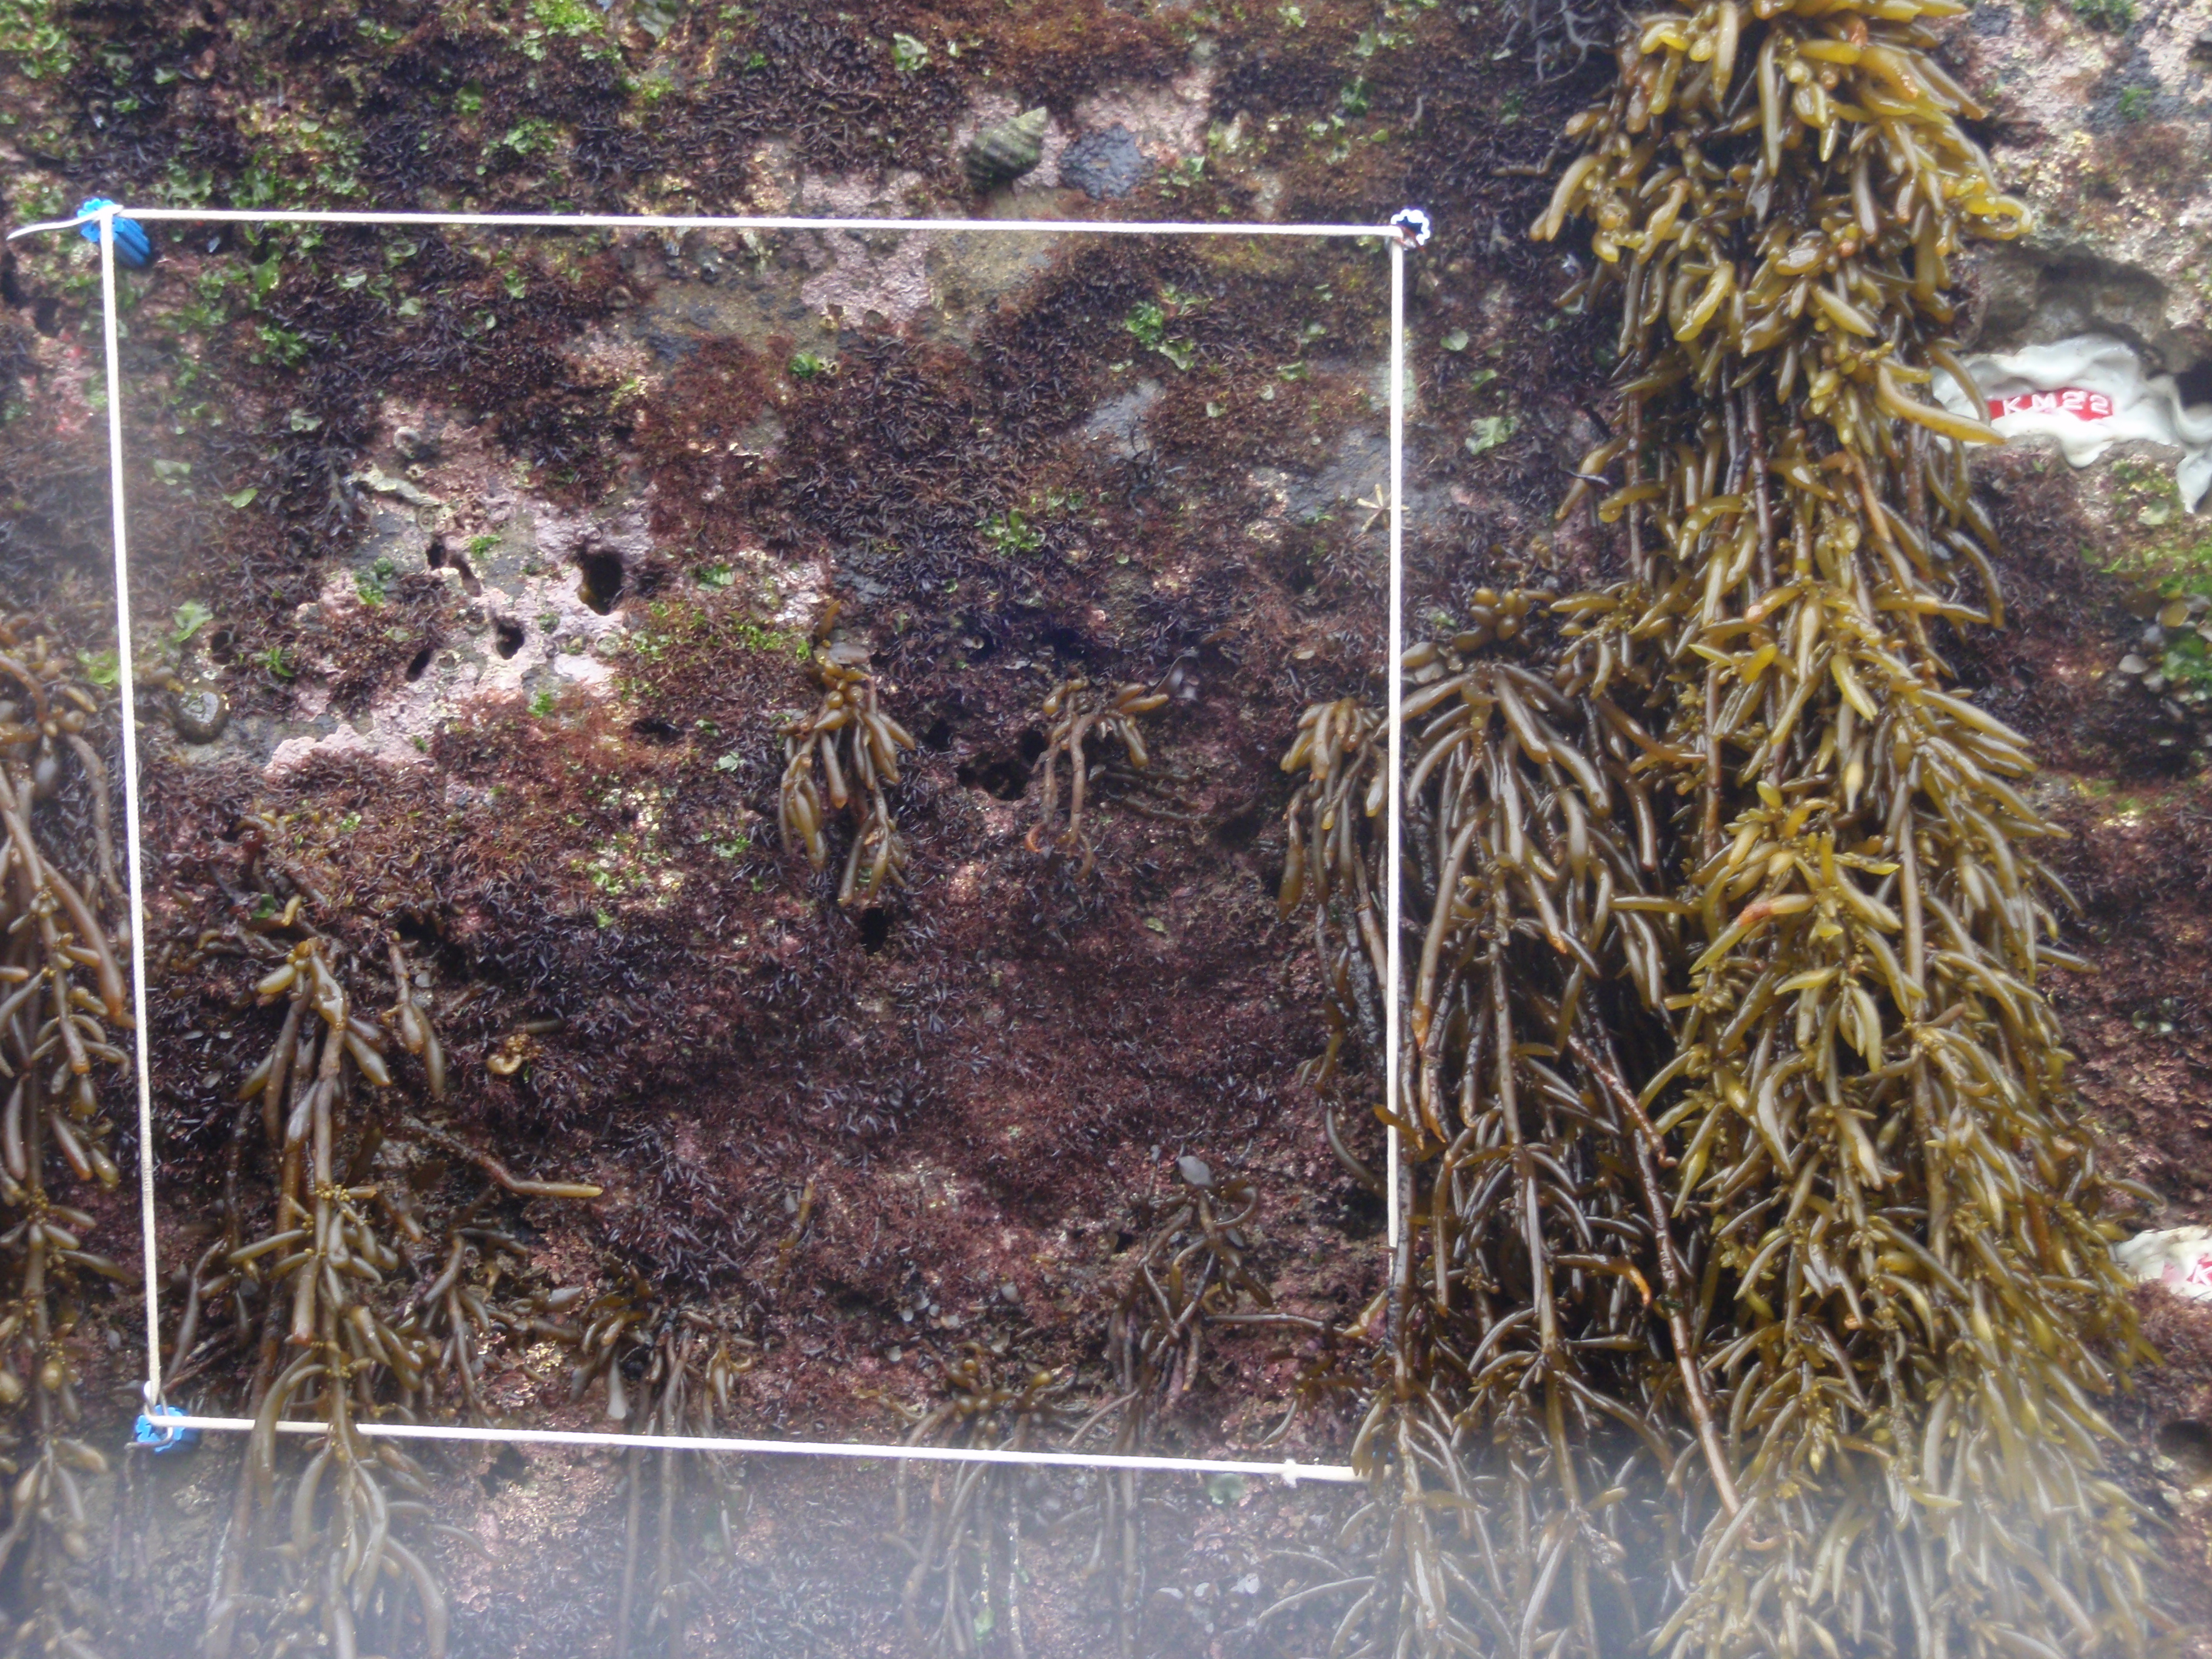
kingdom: Chromista
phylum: Ochrophyta
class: Phaeophyceae
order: Fucales
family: Sargassaceae
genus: Sargassum
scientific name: Sargassum fusiforme
